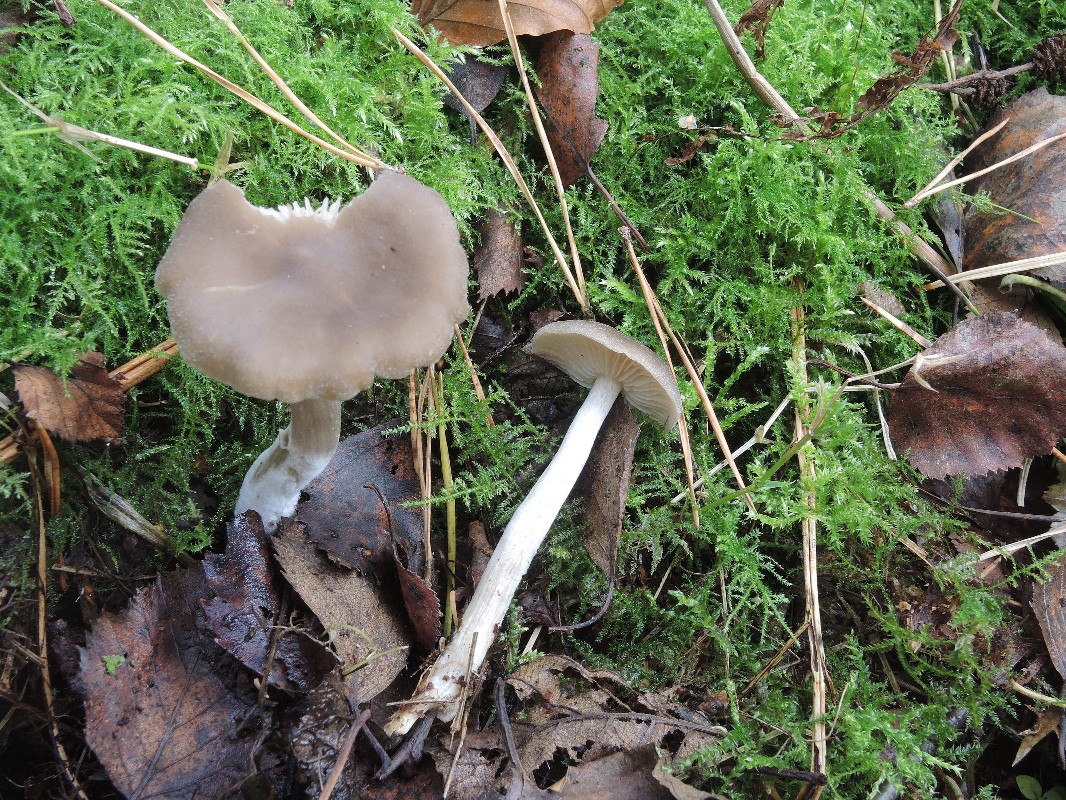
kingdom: Fungi
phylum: Basidiomycota
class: Agaricomycetes
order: Agaricales
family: Entolomataceae
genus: Entoloma
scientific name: Entoloma sericatum
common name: rank rødblad
